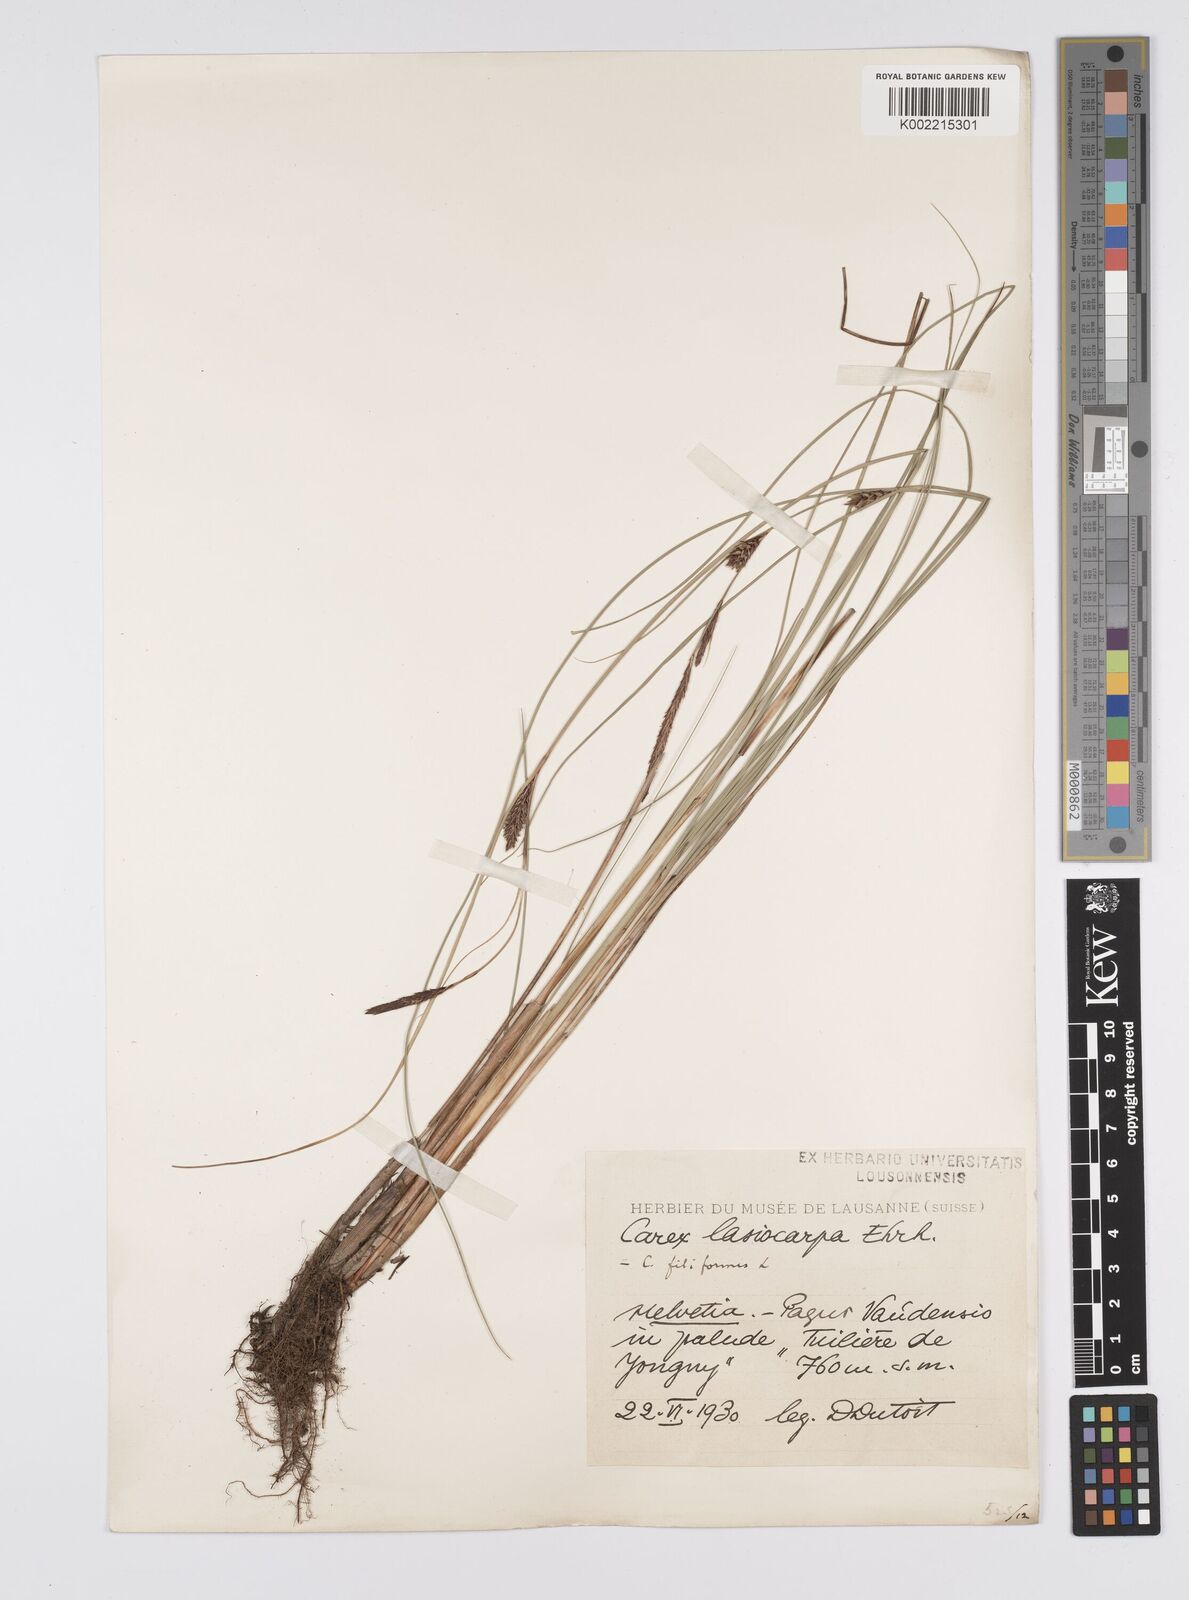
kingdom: Plantae
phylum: Tracheophyta
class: Liliopsida
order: Poales
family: Cyperaceae
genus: Carex
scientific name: Carex lasiocarpa
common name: Slender sedge
